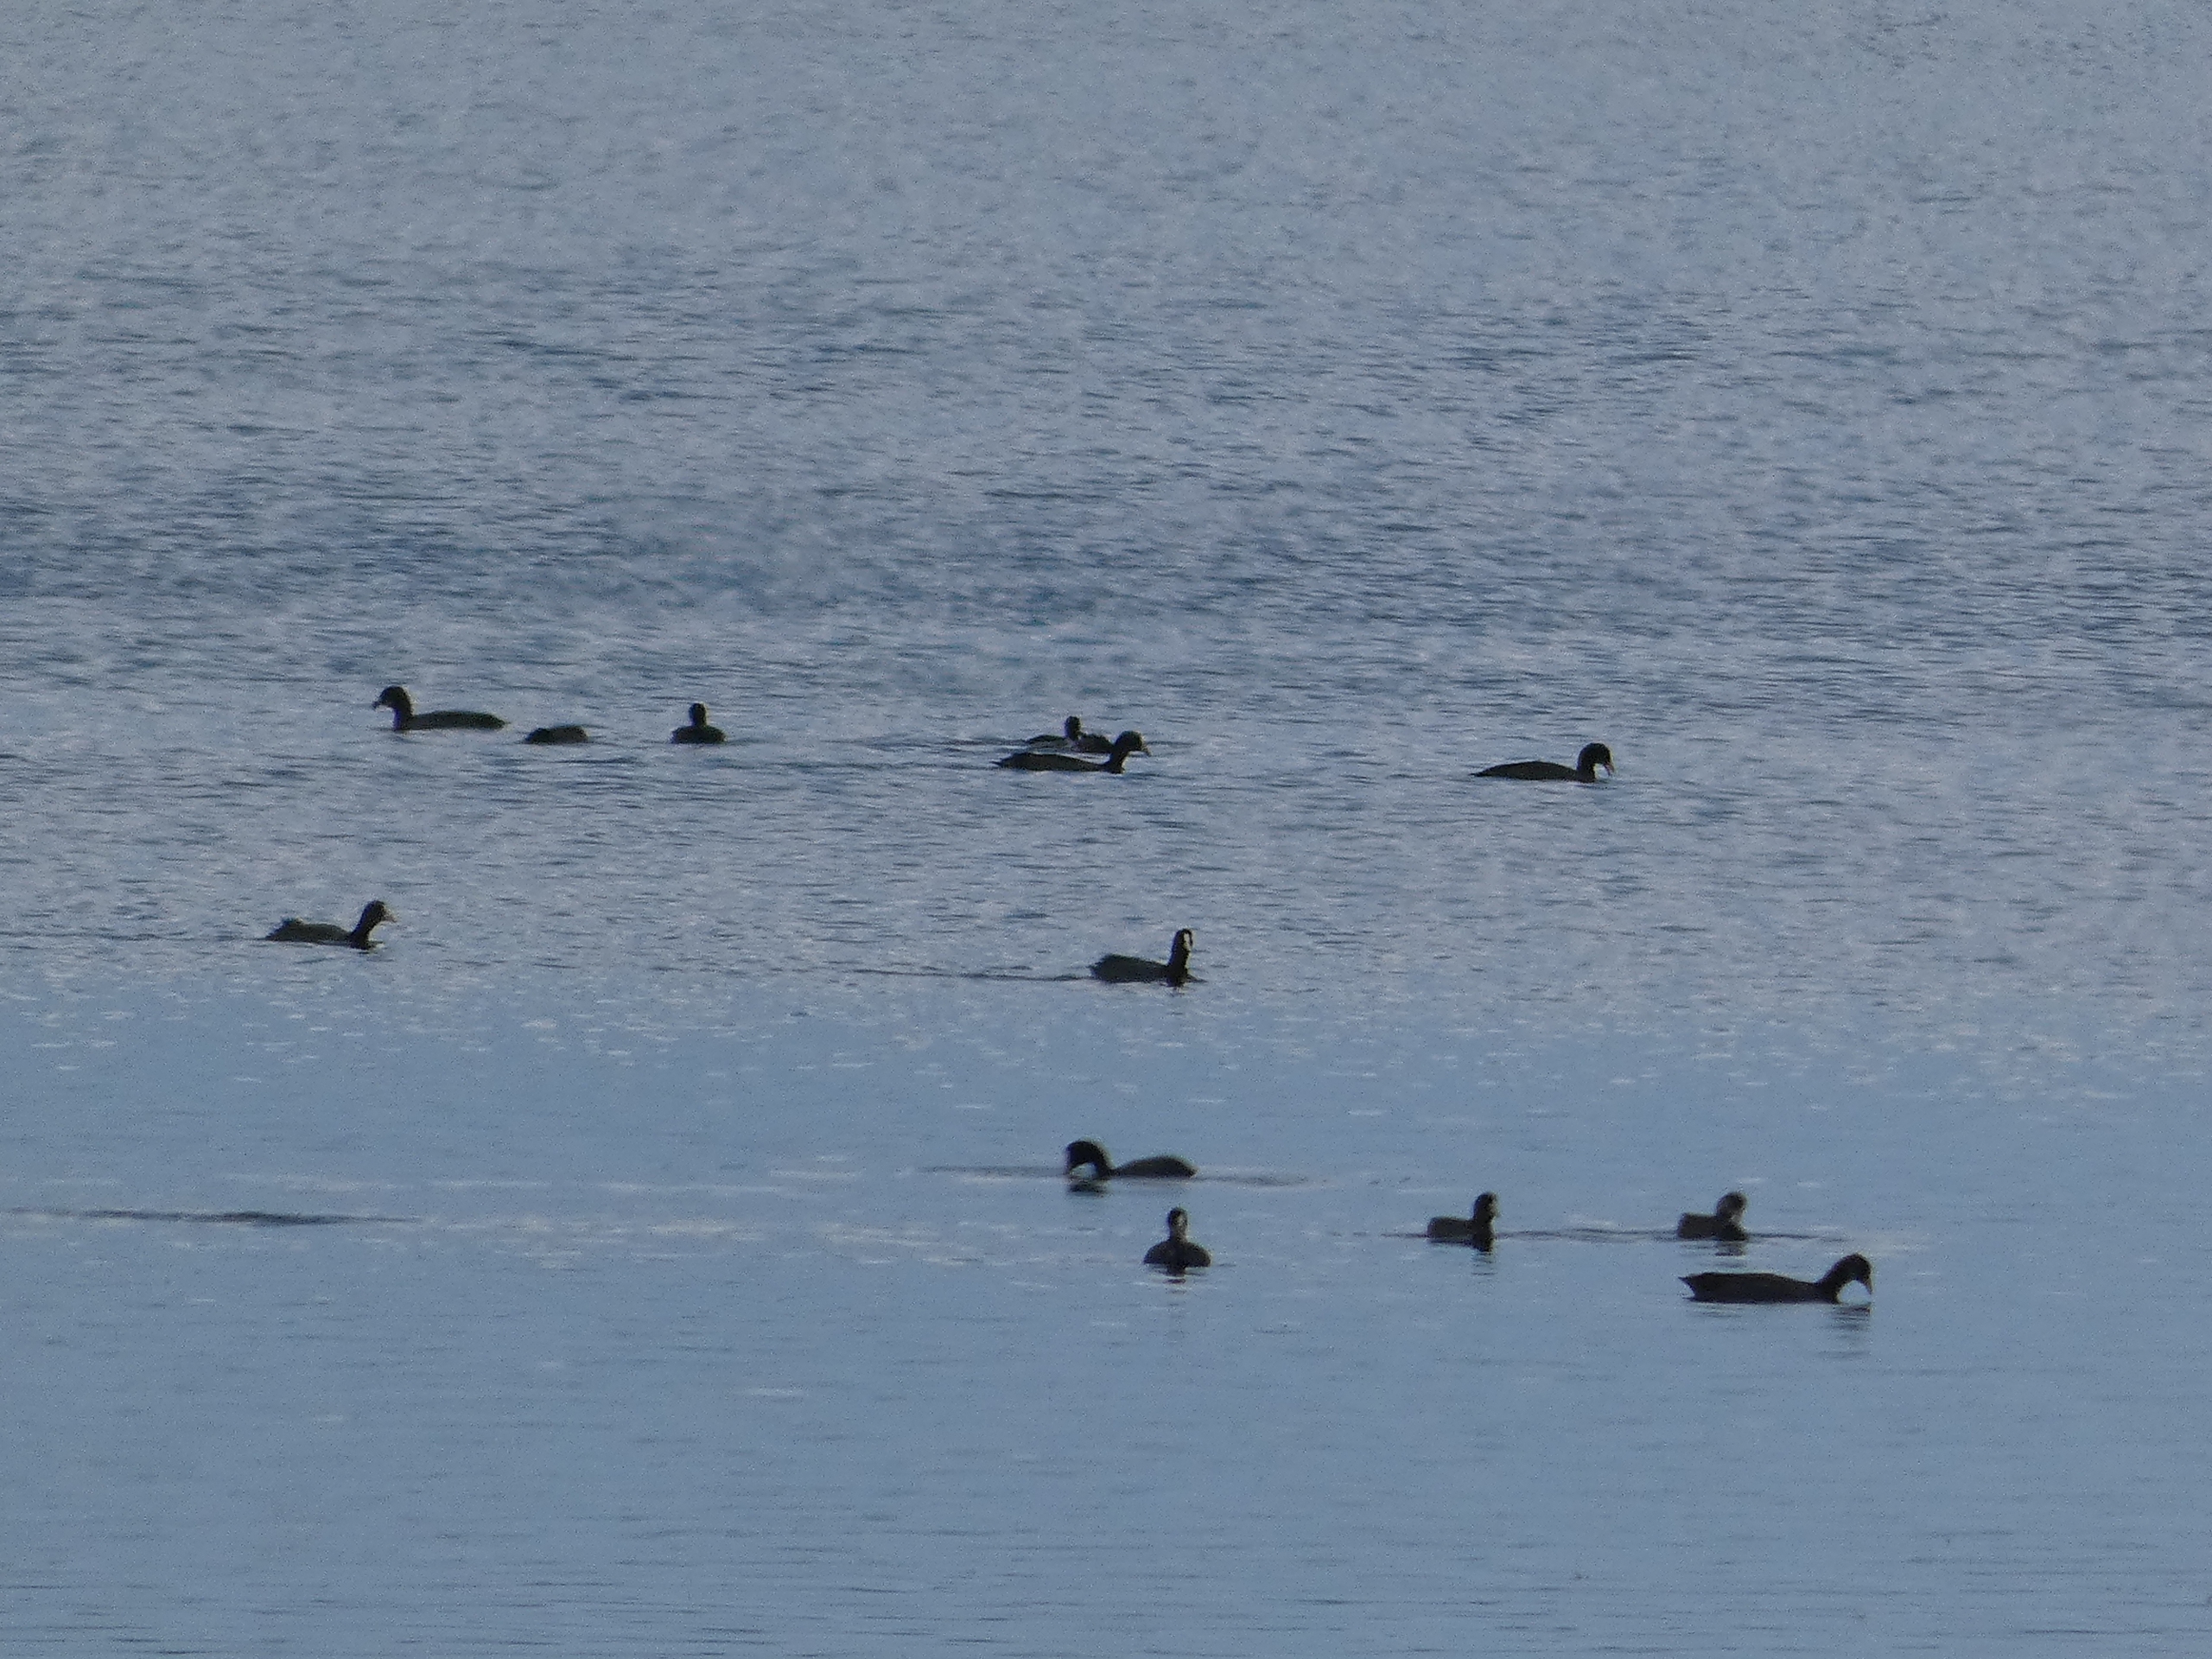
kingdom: Animalia
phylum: Chordata
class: Aves
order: Gruiformes
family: Rallidae
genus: Fulica
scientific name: Fulica atra
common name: Blishøne
